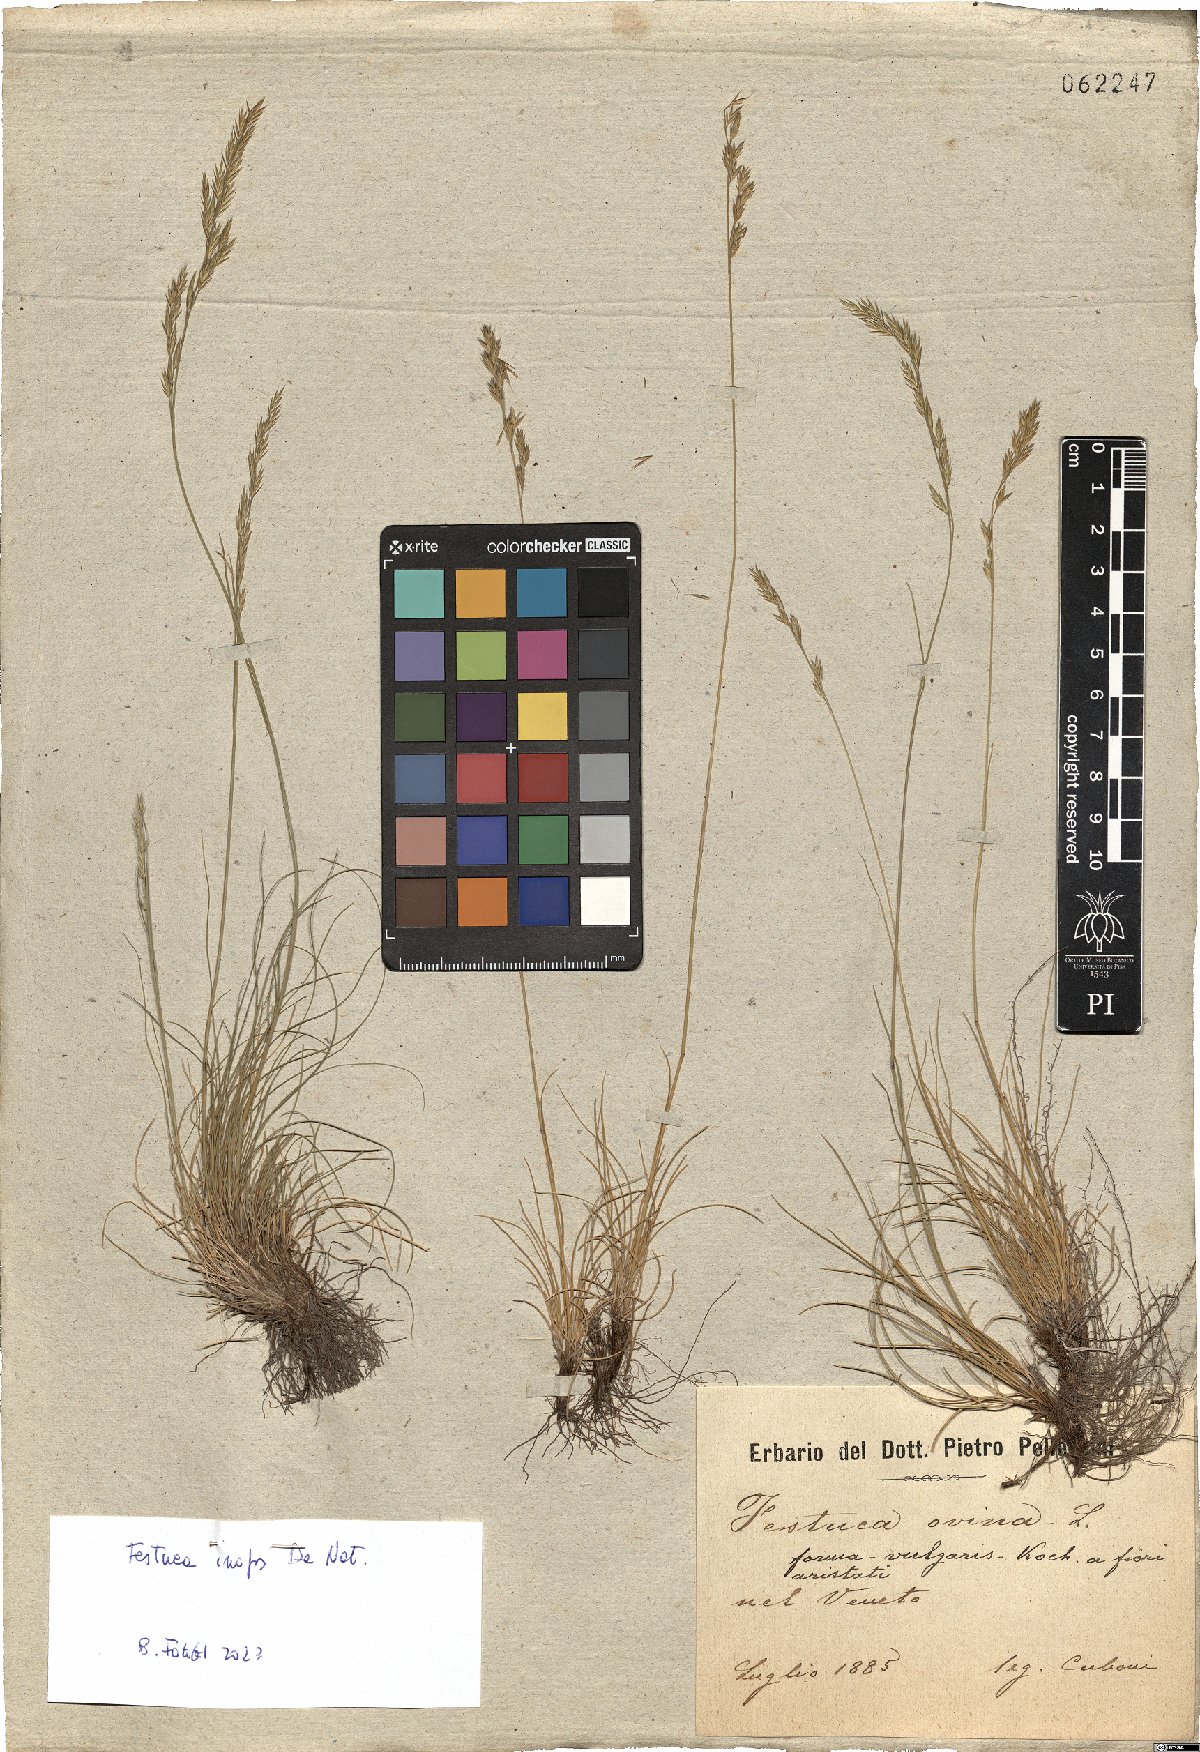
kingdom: Plantae
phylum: Tracheophyta
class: Liliopsida
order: Poales
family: Poaceae
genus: Festuca
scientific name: Festuca inops
